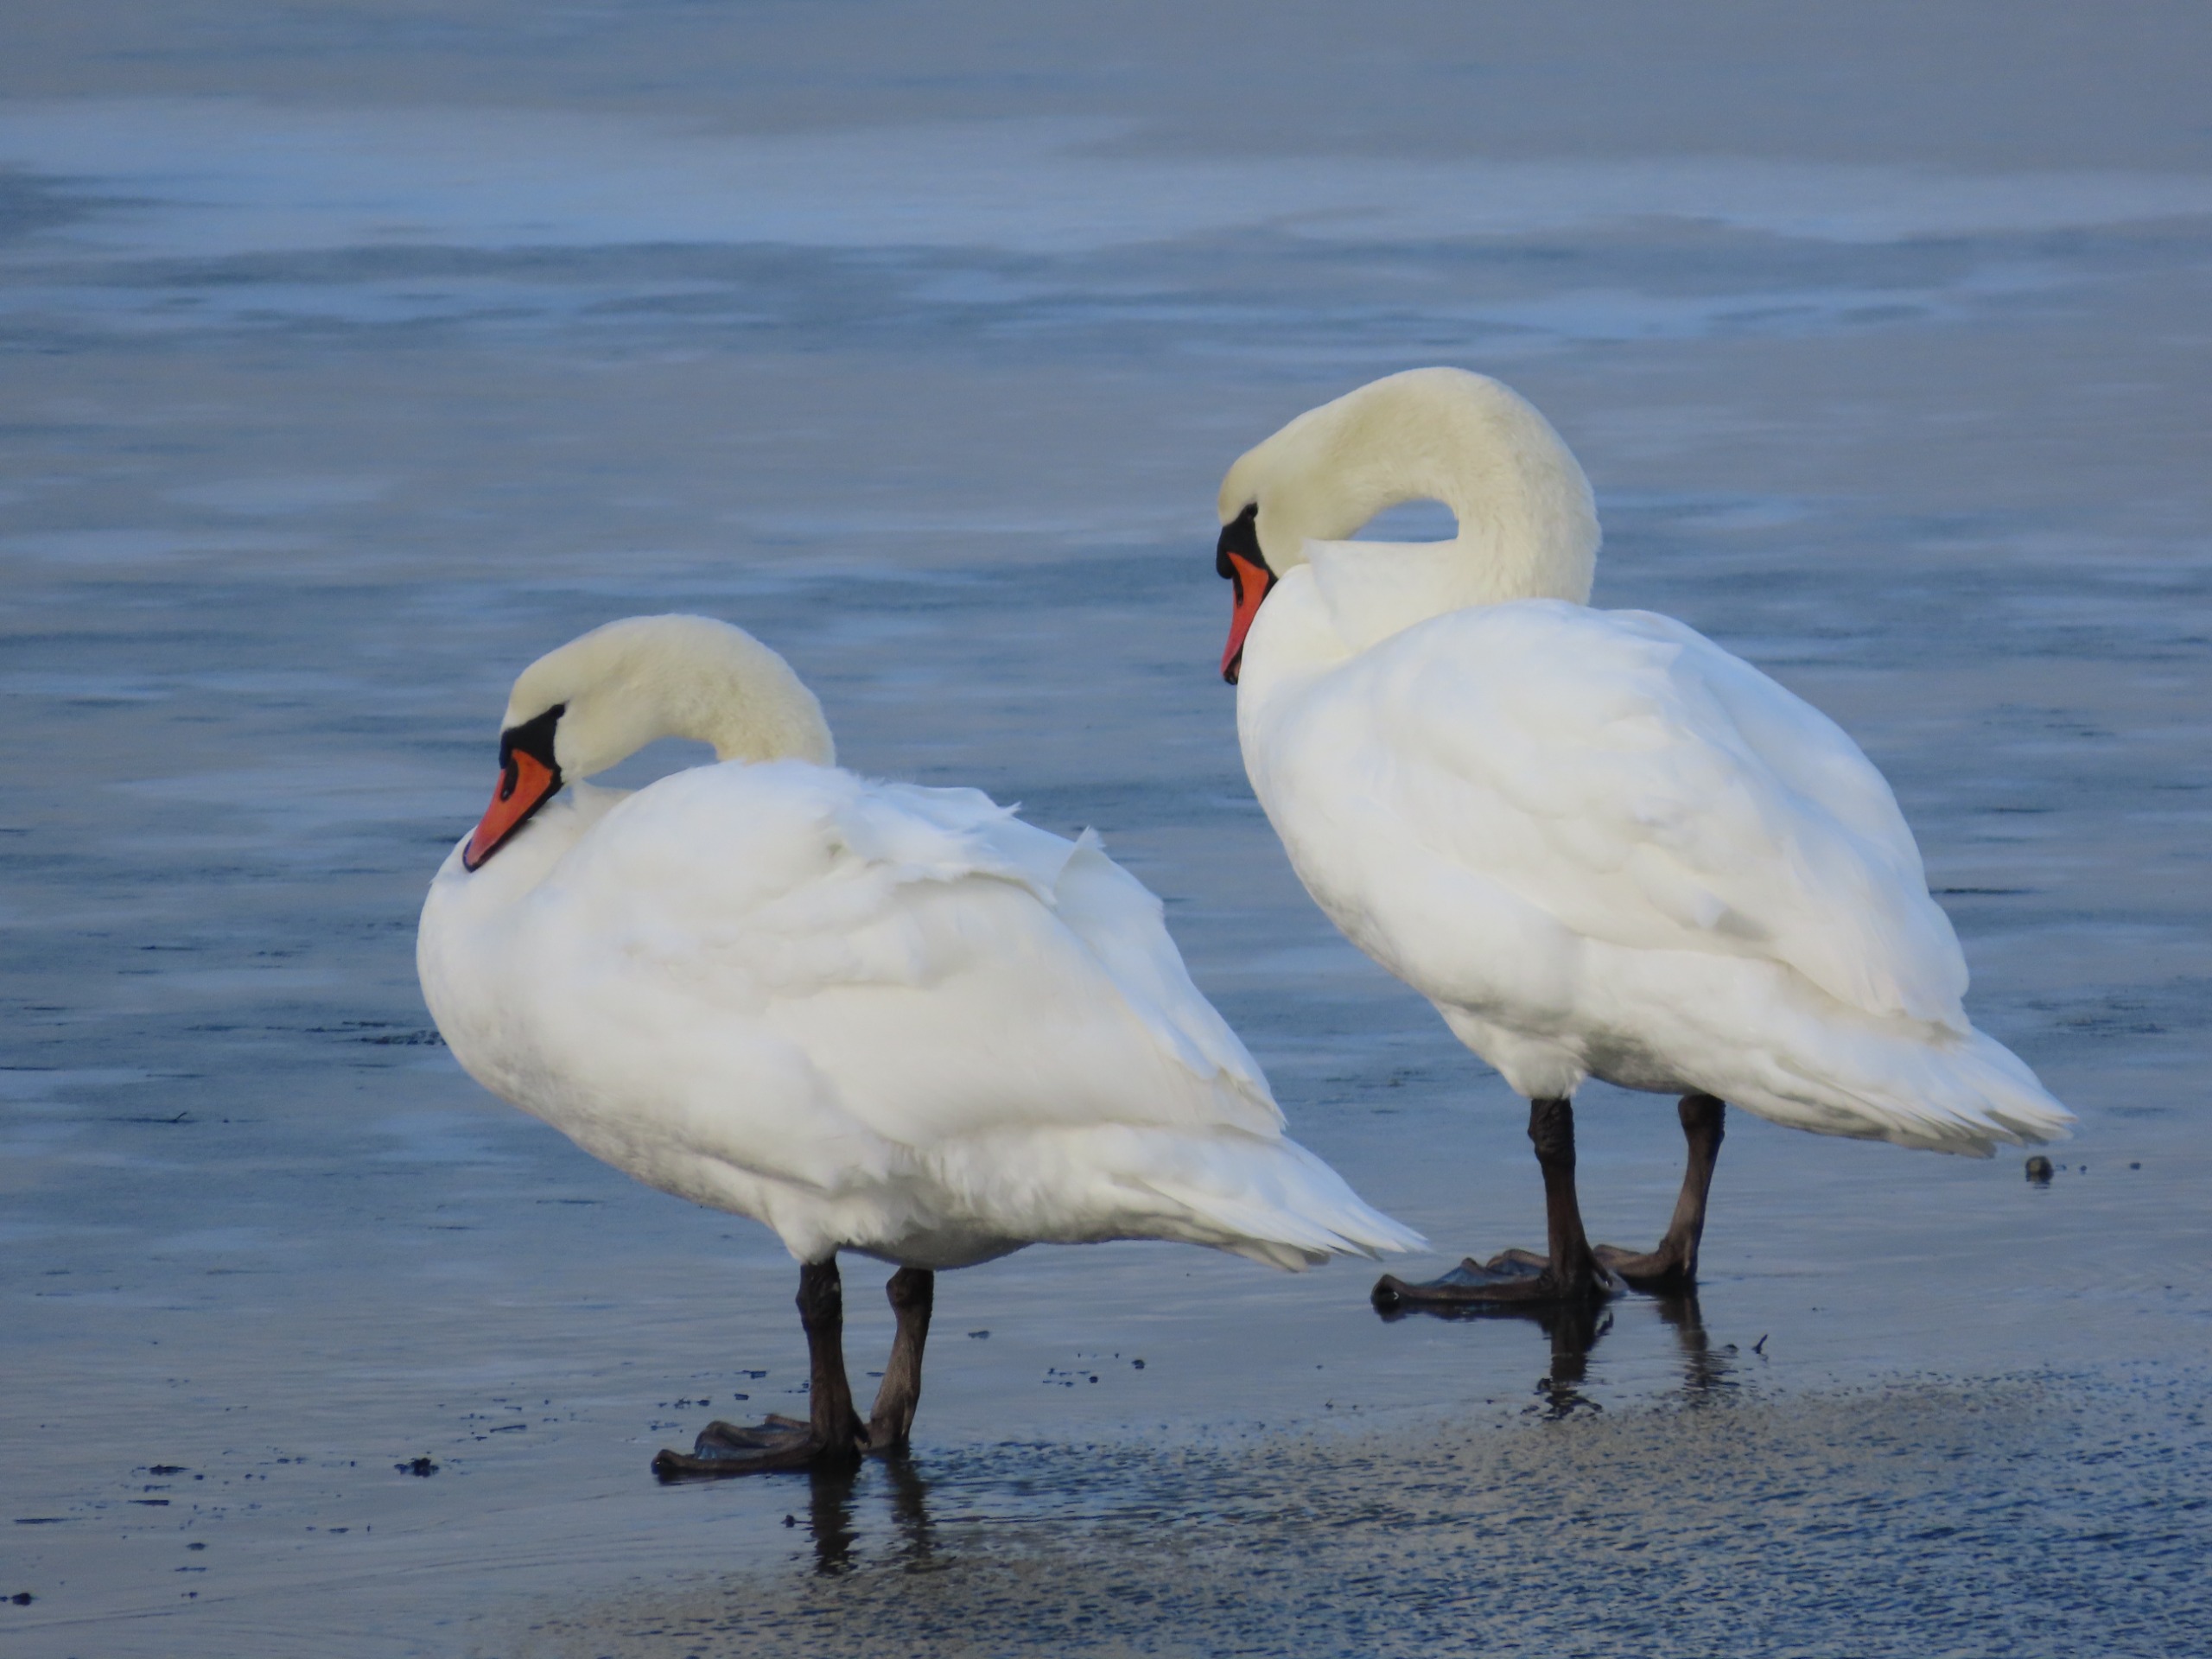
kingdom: Animalia
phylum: Chordata
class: Aves
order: Anseriformes
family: Anatidae
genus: Cygnus
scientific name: Cygnus olor
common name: Knopsvane
